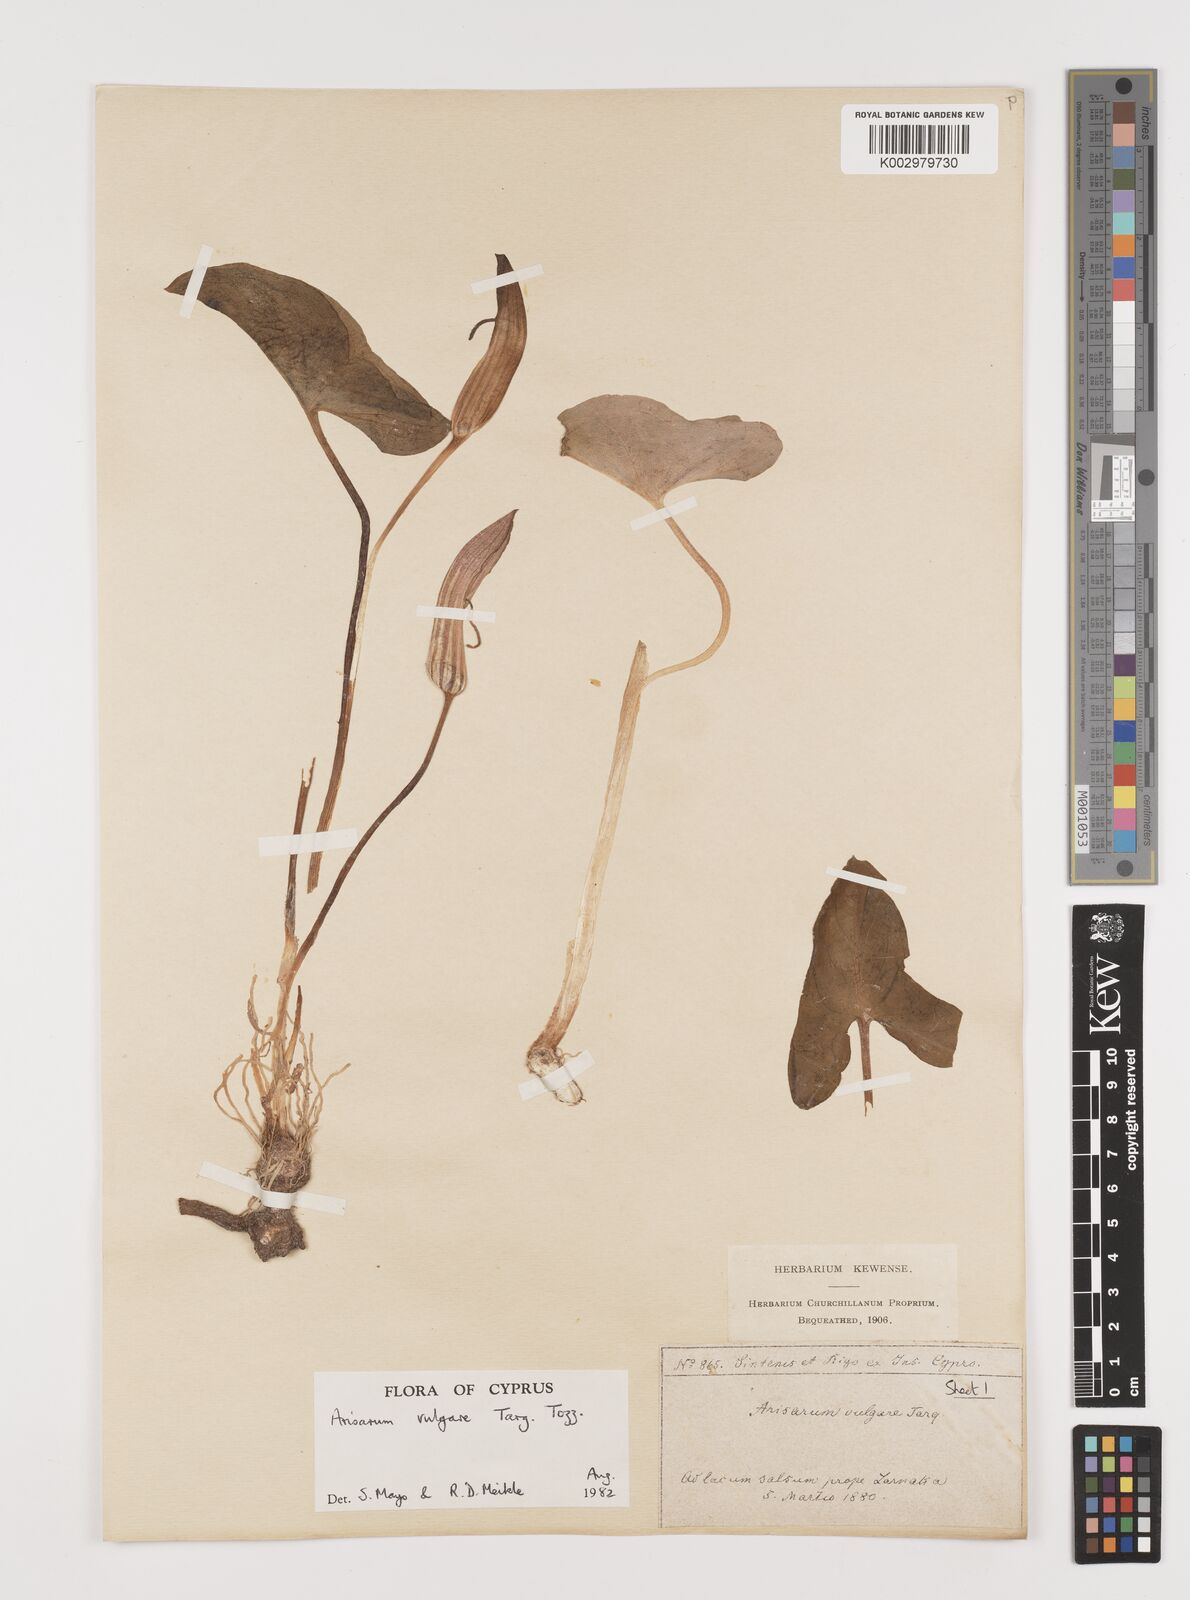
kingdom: Plantae
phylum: Tracheophyta
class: Liliopsida
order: Alismatales
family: Araceae
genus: Arisarum
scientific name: Arisarum vulgare
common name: Common arisarum
